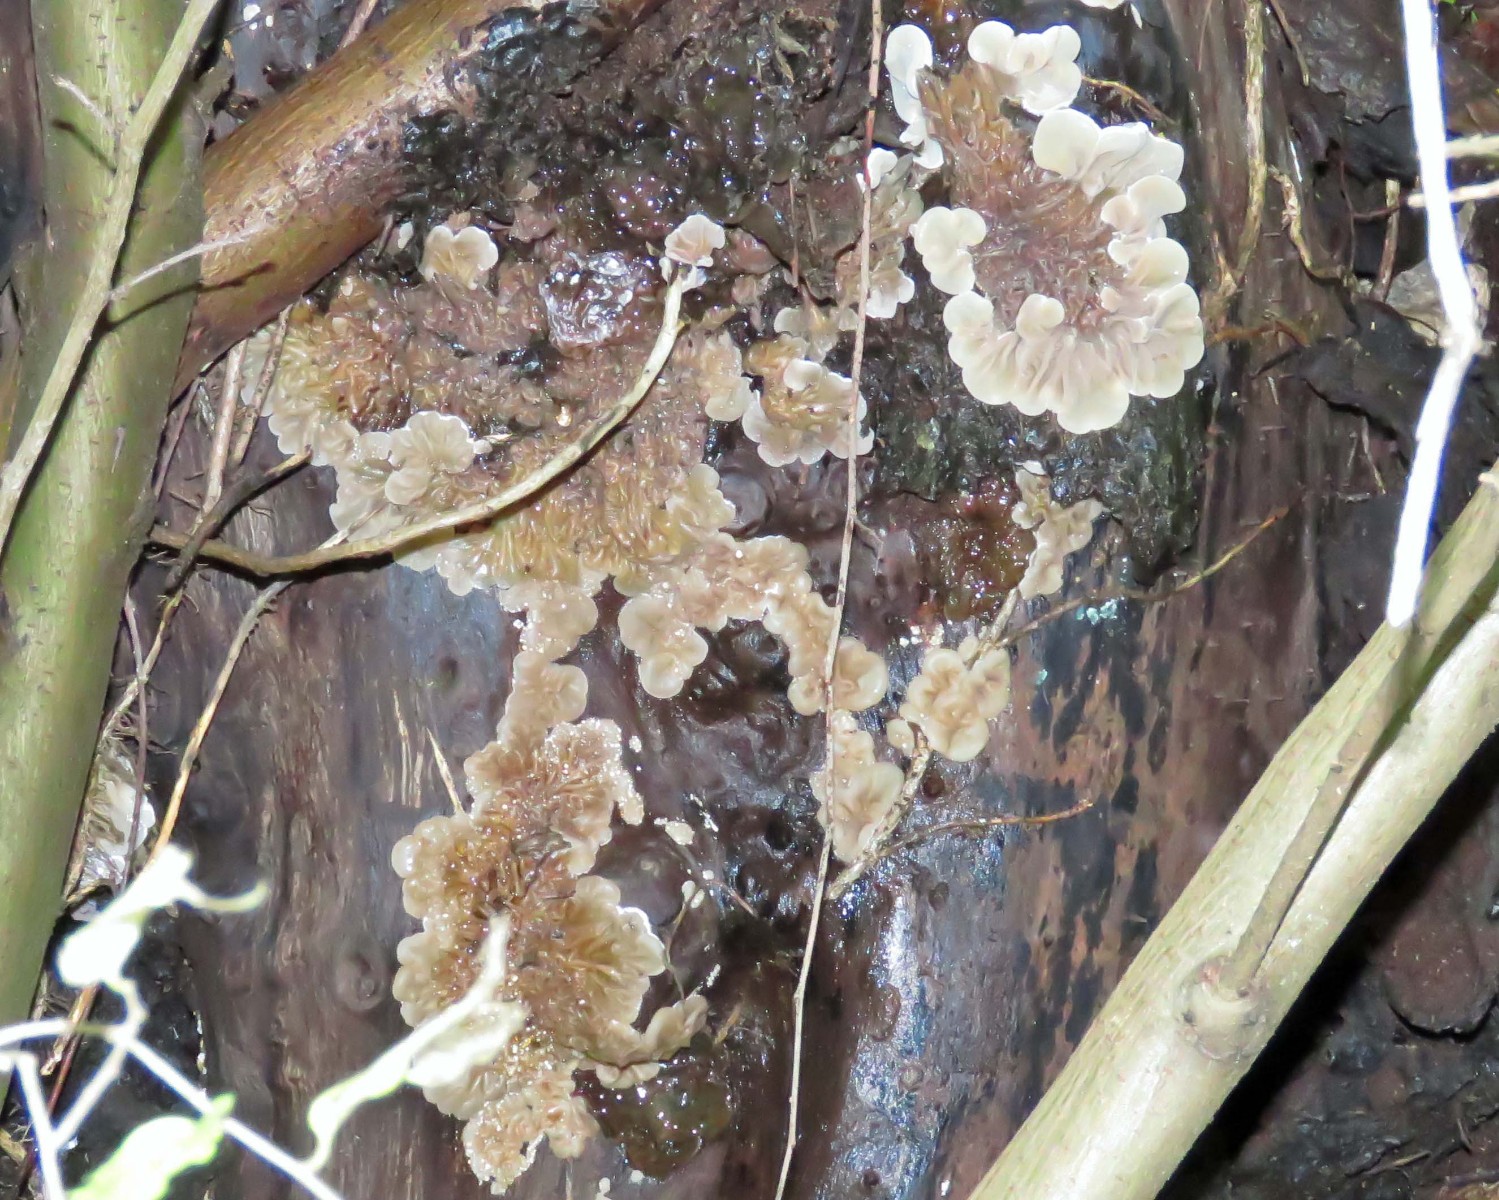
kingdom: Fungi
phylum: Basidiomycota
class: Agaricomycetes
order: Auriculariales
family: Auriculariaceae
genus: Auricularia
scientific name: Auricularia mesenterica
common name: håret judasøre
